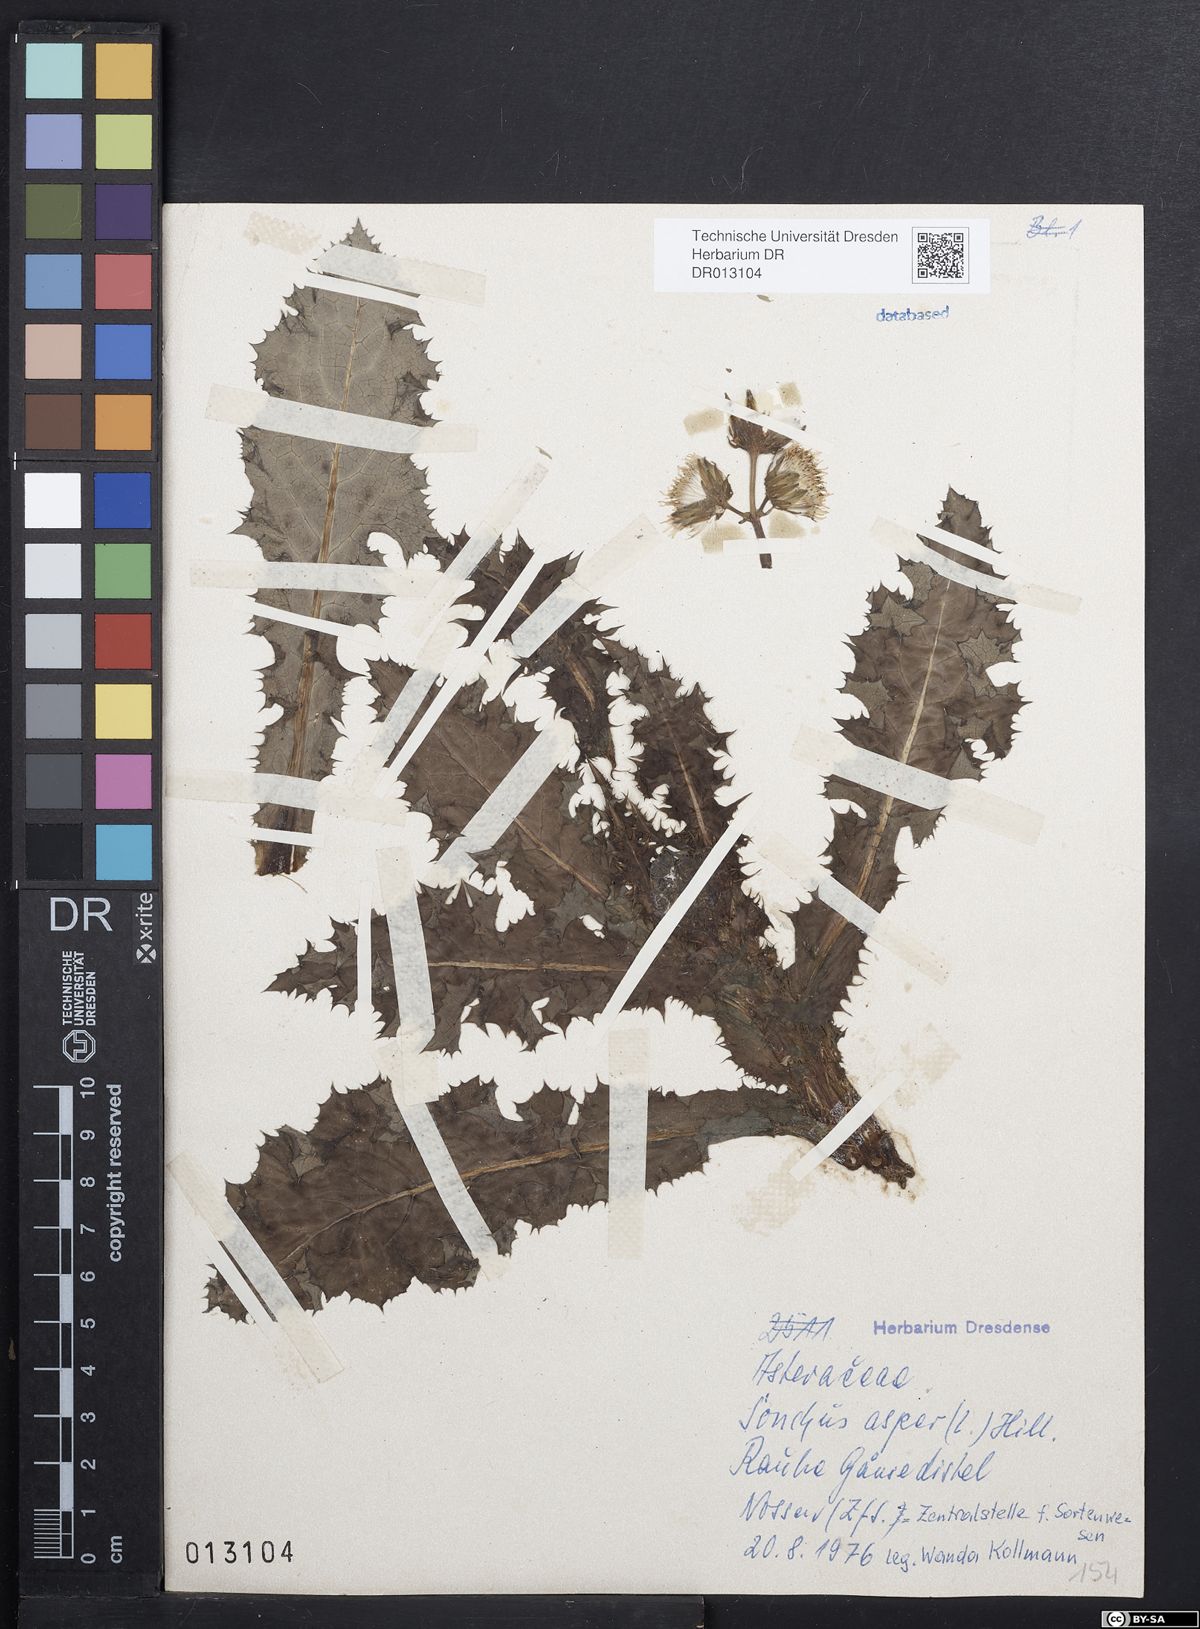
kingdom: Plantae
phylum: Tracheophyta
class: Magnoliopsida
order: Asterales
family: Asteraceae
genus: Sonchus
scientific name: Sonchus asper
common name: Prickly sow-thistle
